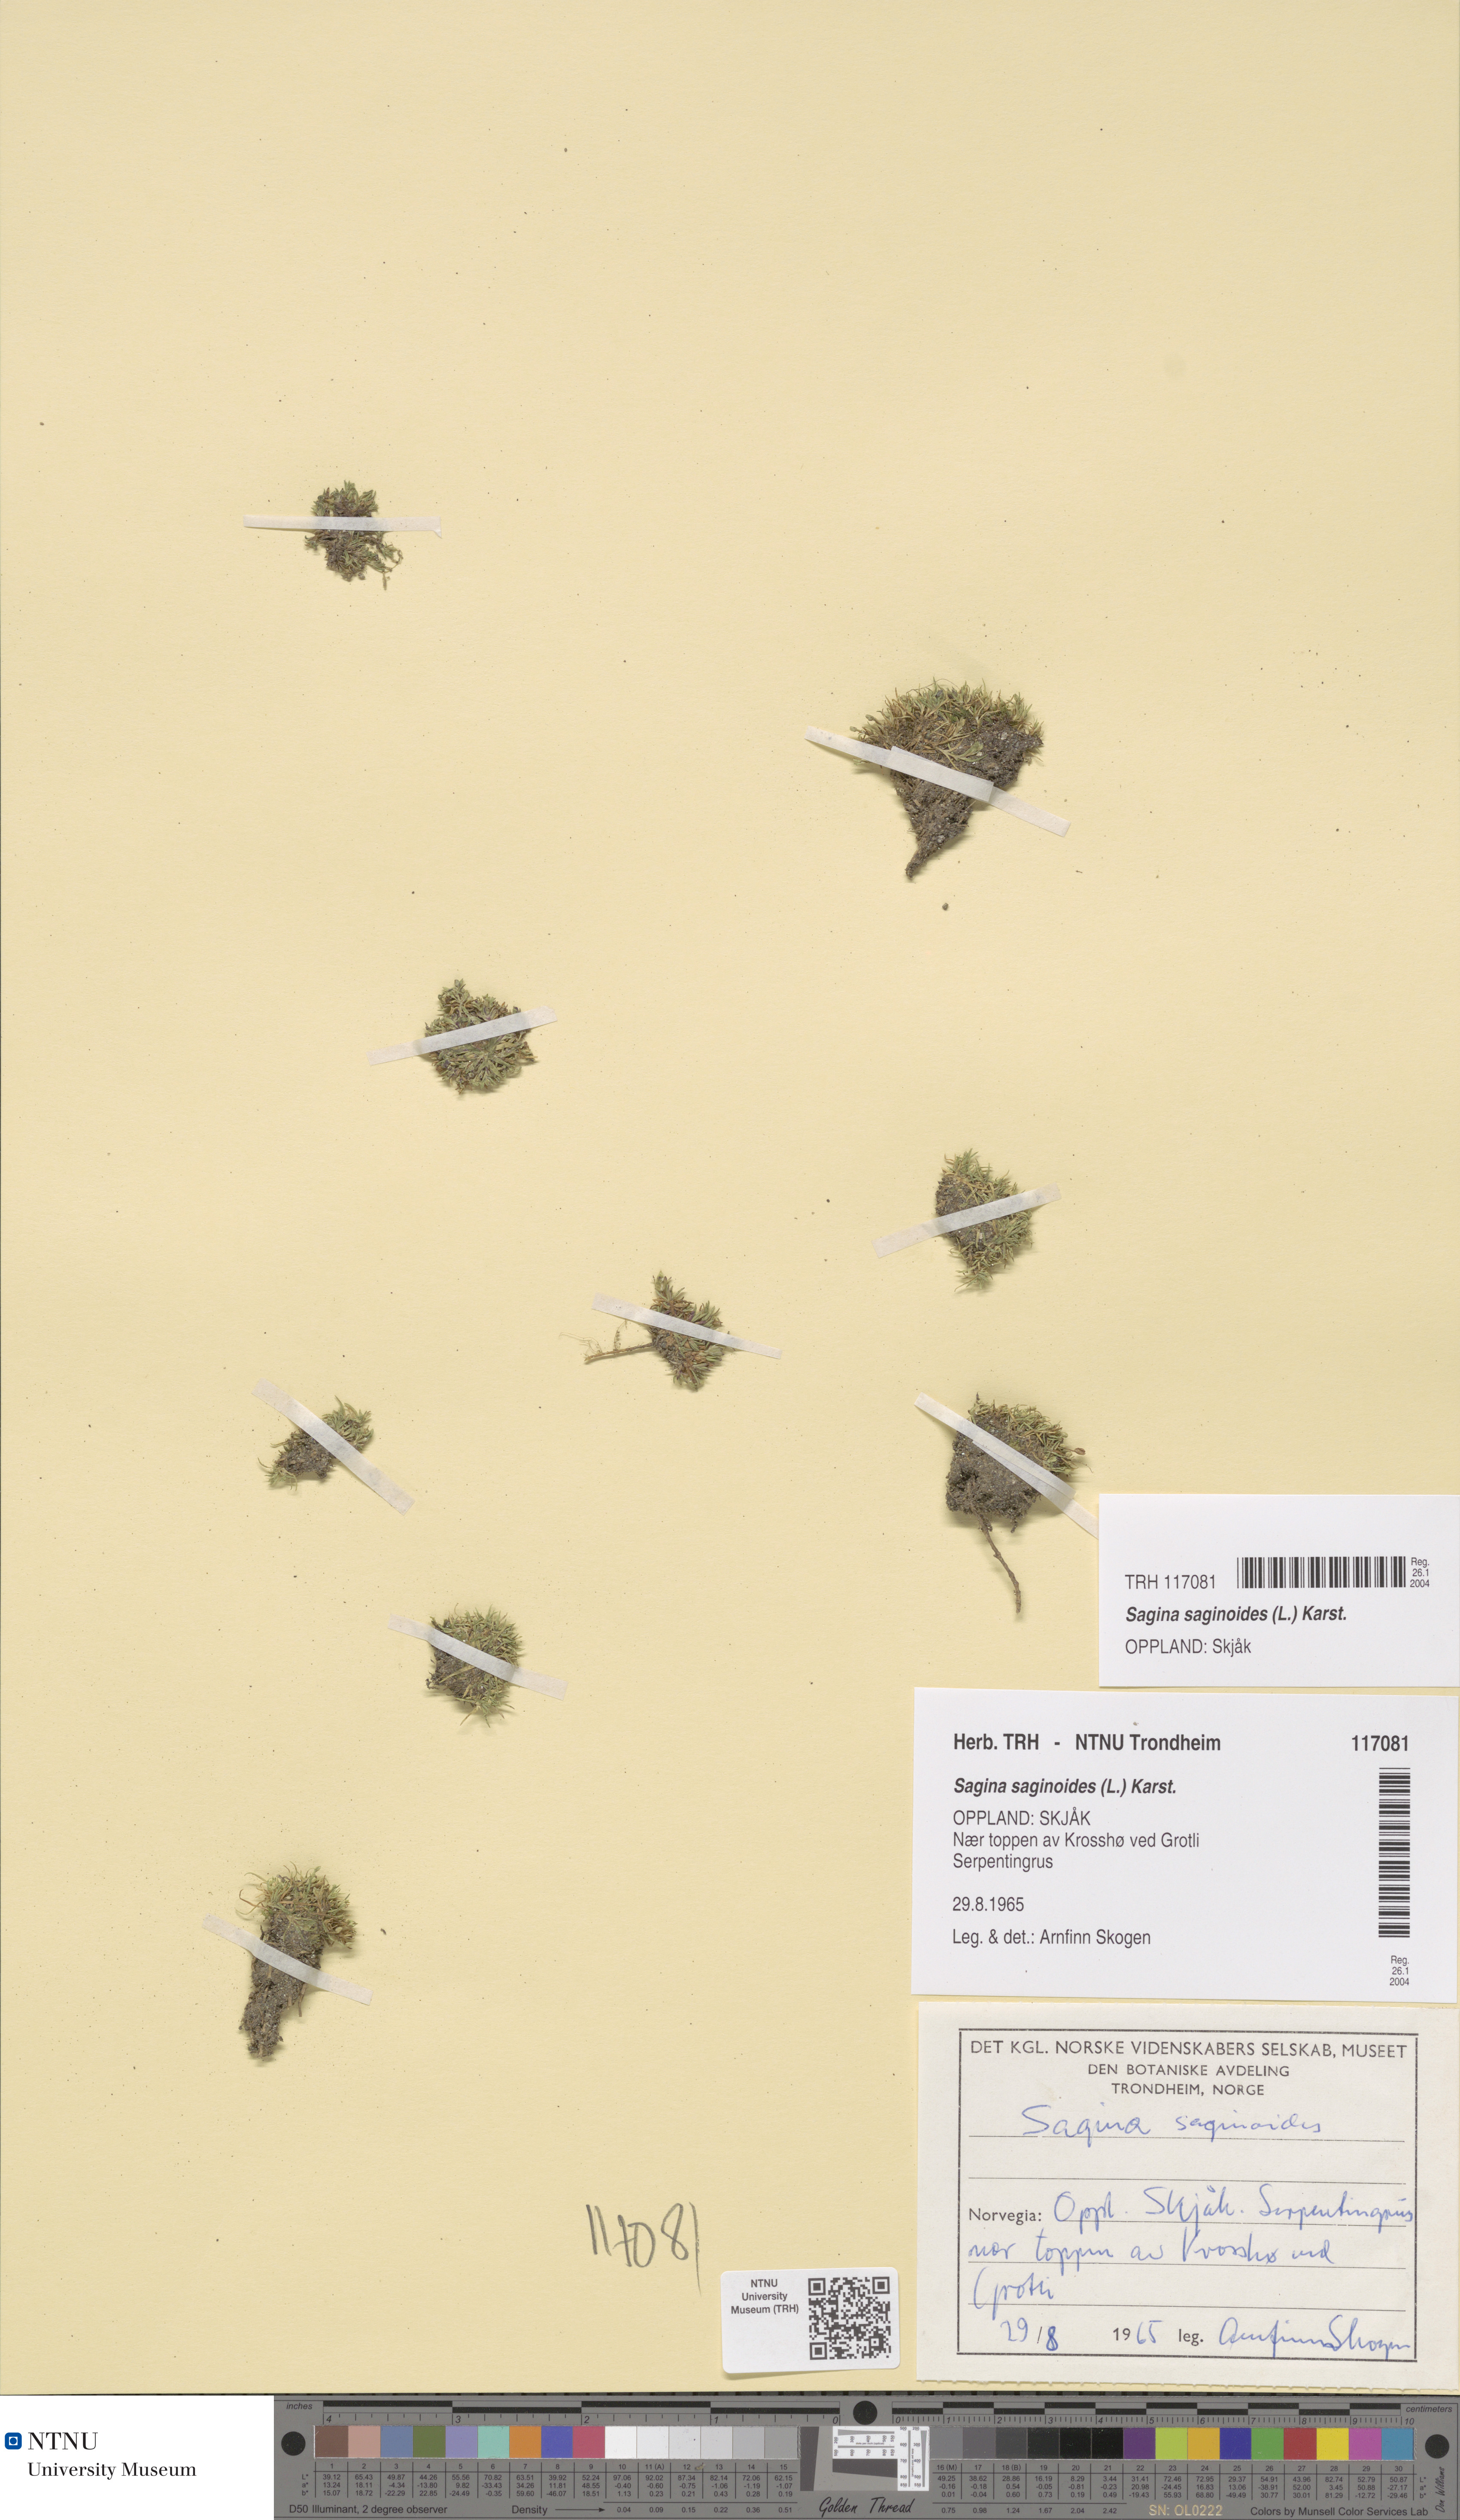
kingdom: Plantae
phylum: Tracheophyta
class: Magnoliopsida
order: Caryophyllales
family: Caryophyllaceae
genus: Sagina
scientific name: Sagina saginoides
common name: Alpine pearlwort
